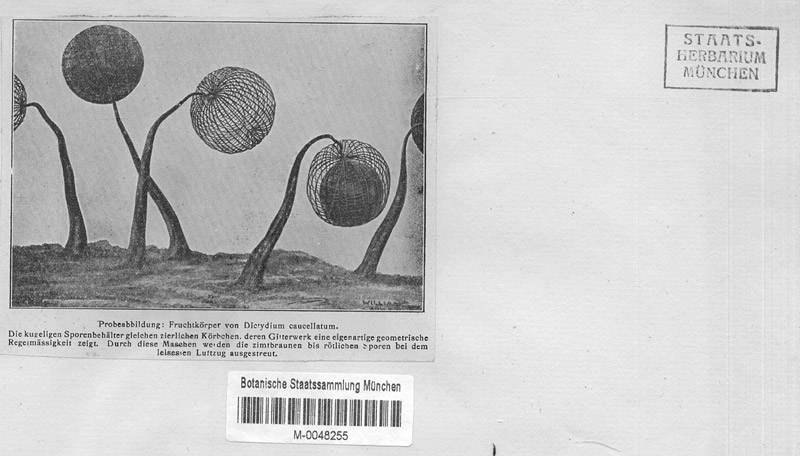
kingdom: Protozoa
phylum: Mycetozoa
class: Myxomycetes
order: Cribrariales
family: Cribrariaceae
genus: Cribraria
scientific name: Cribraria cancellata
